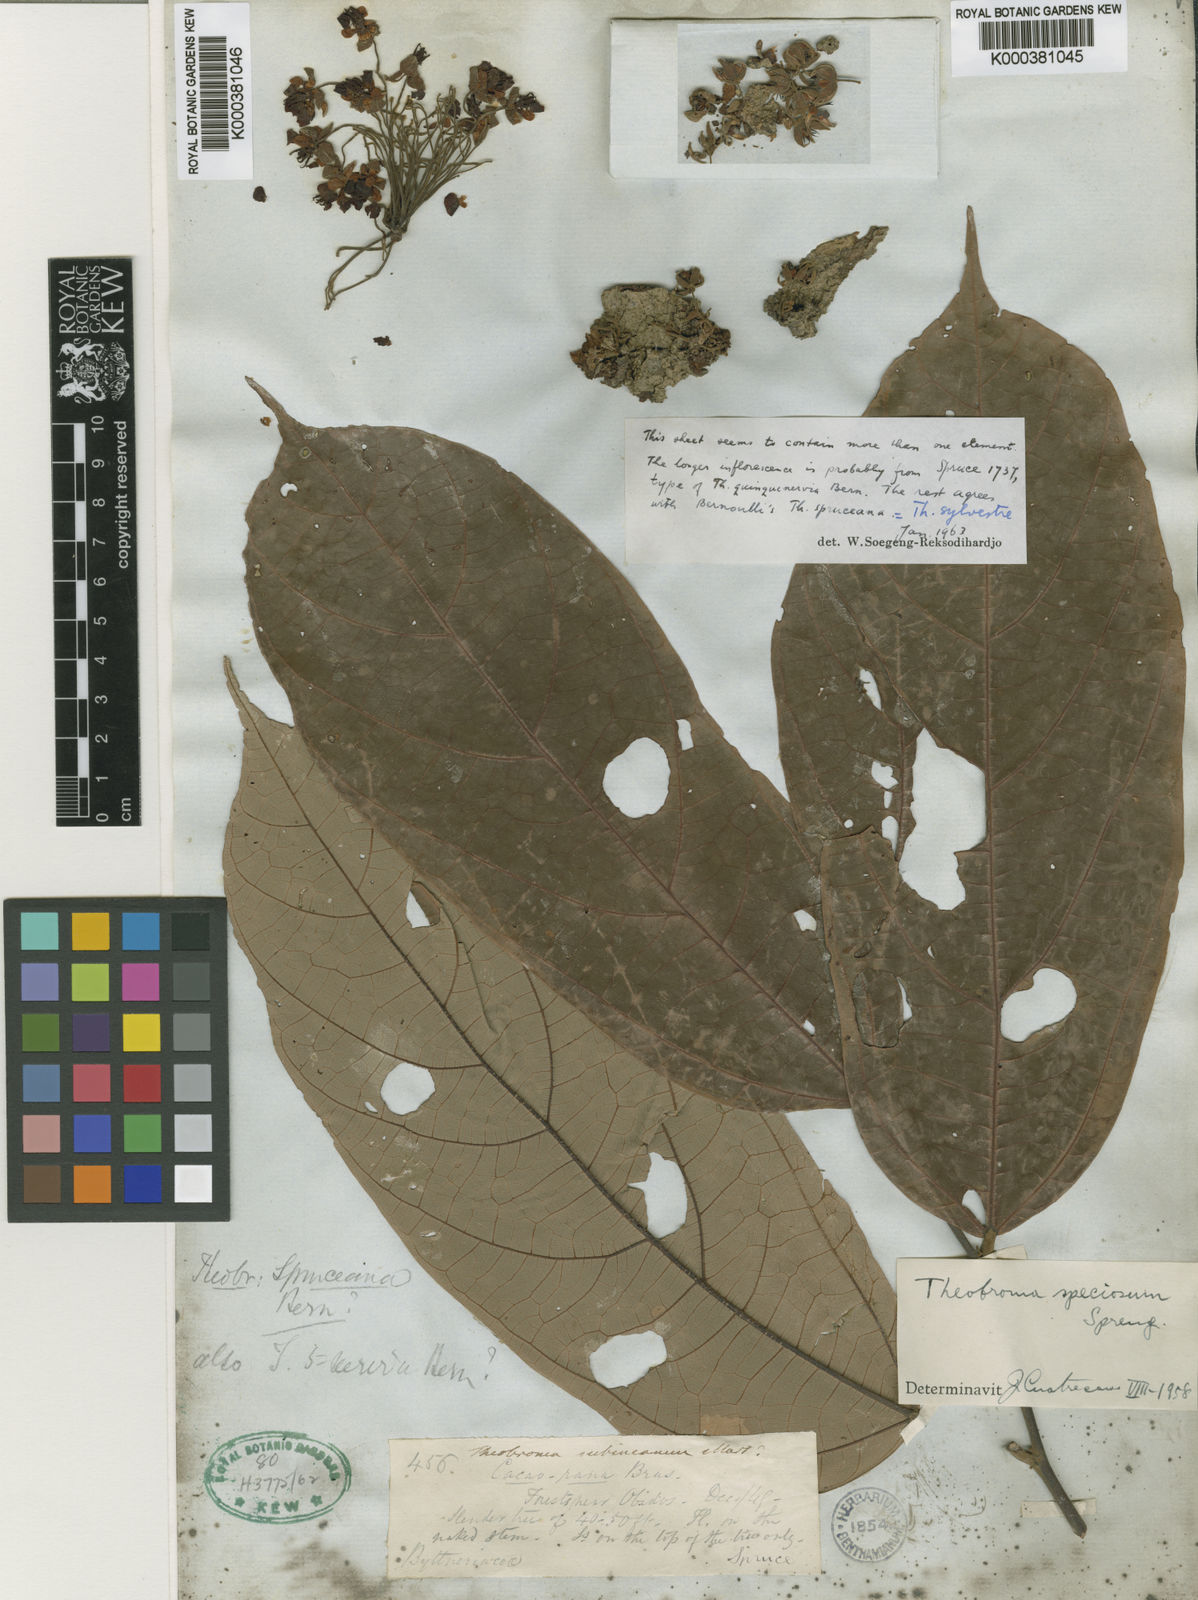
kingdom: Plantae
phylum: Tracheophyta
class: Magnoliopsida
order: Malvales
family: Malvaceae
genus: Theobroma
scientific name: Theobroma speciosum
